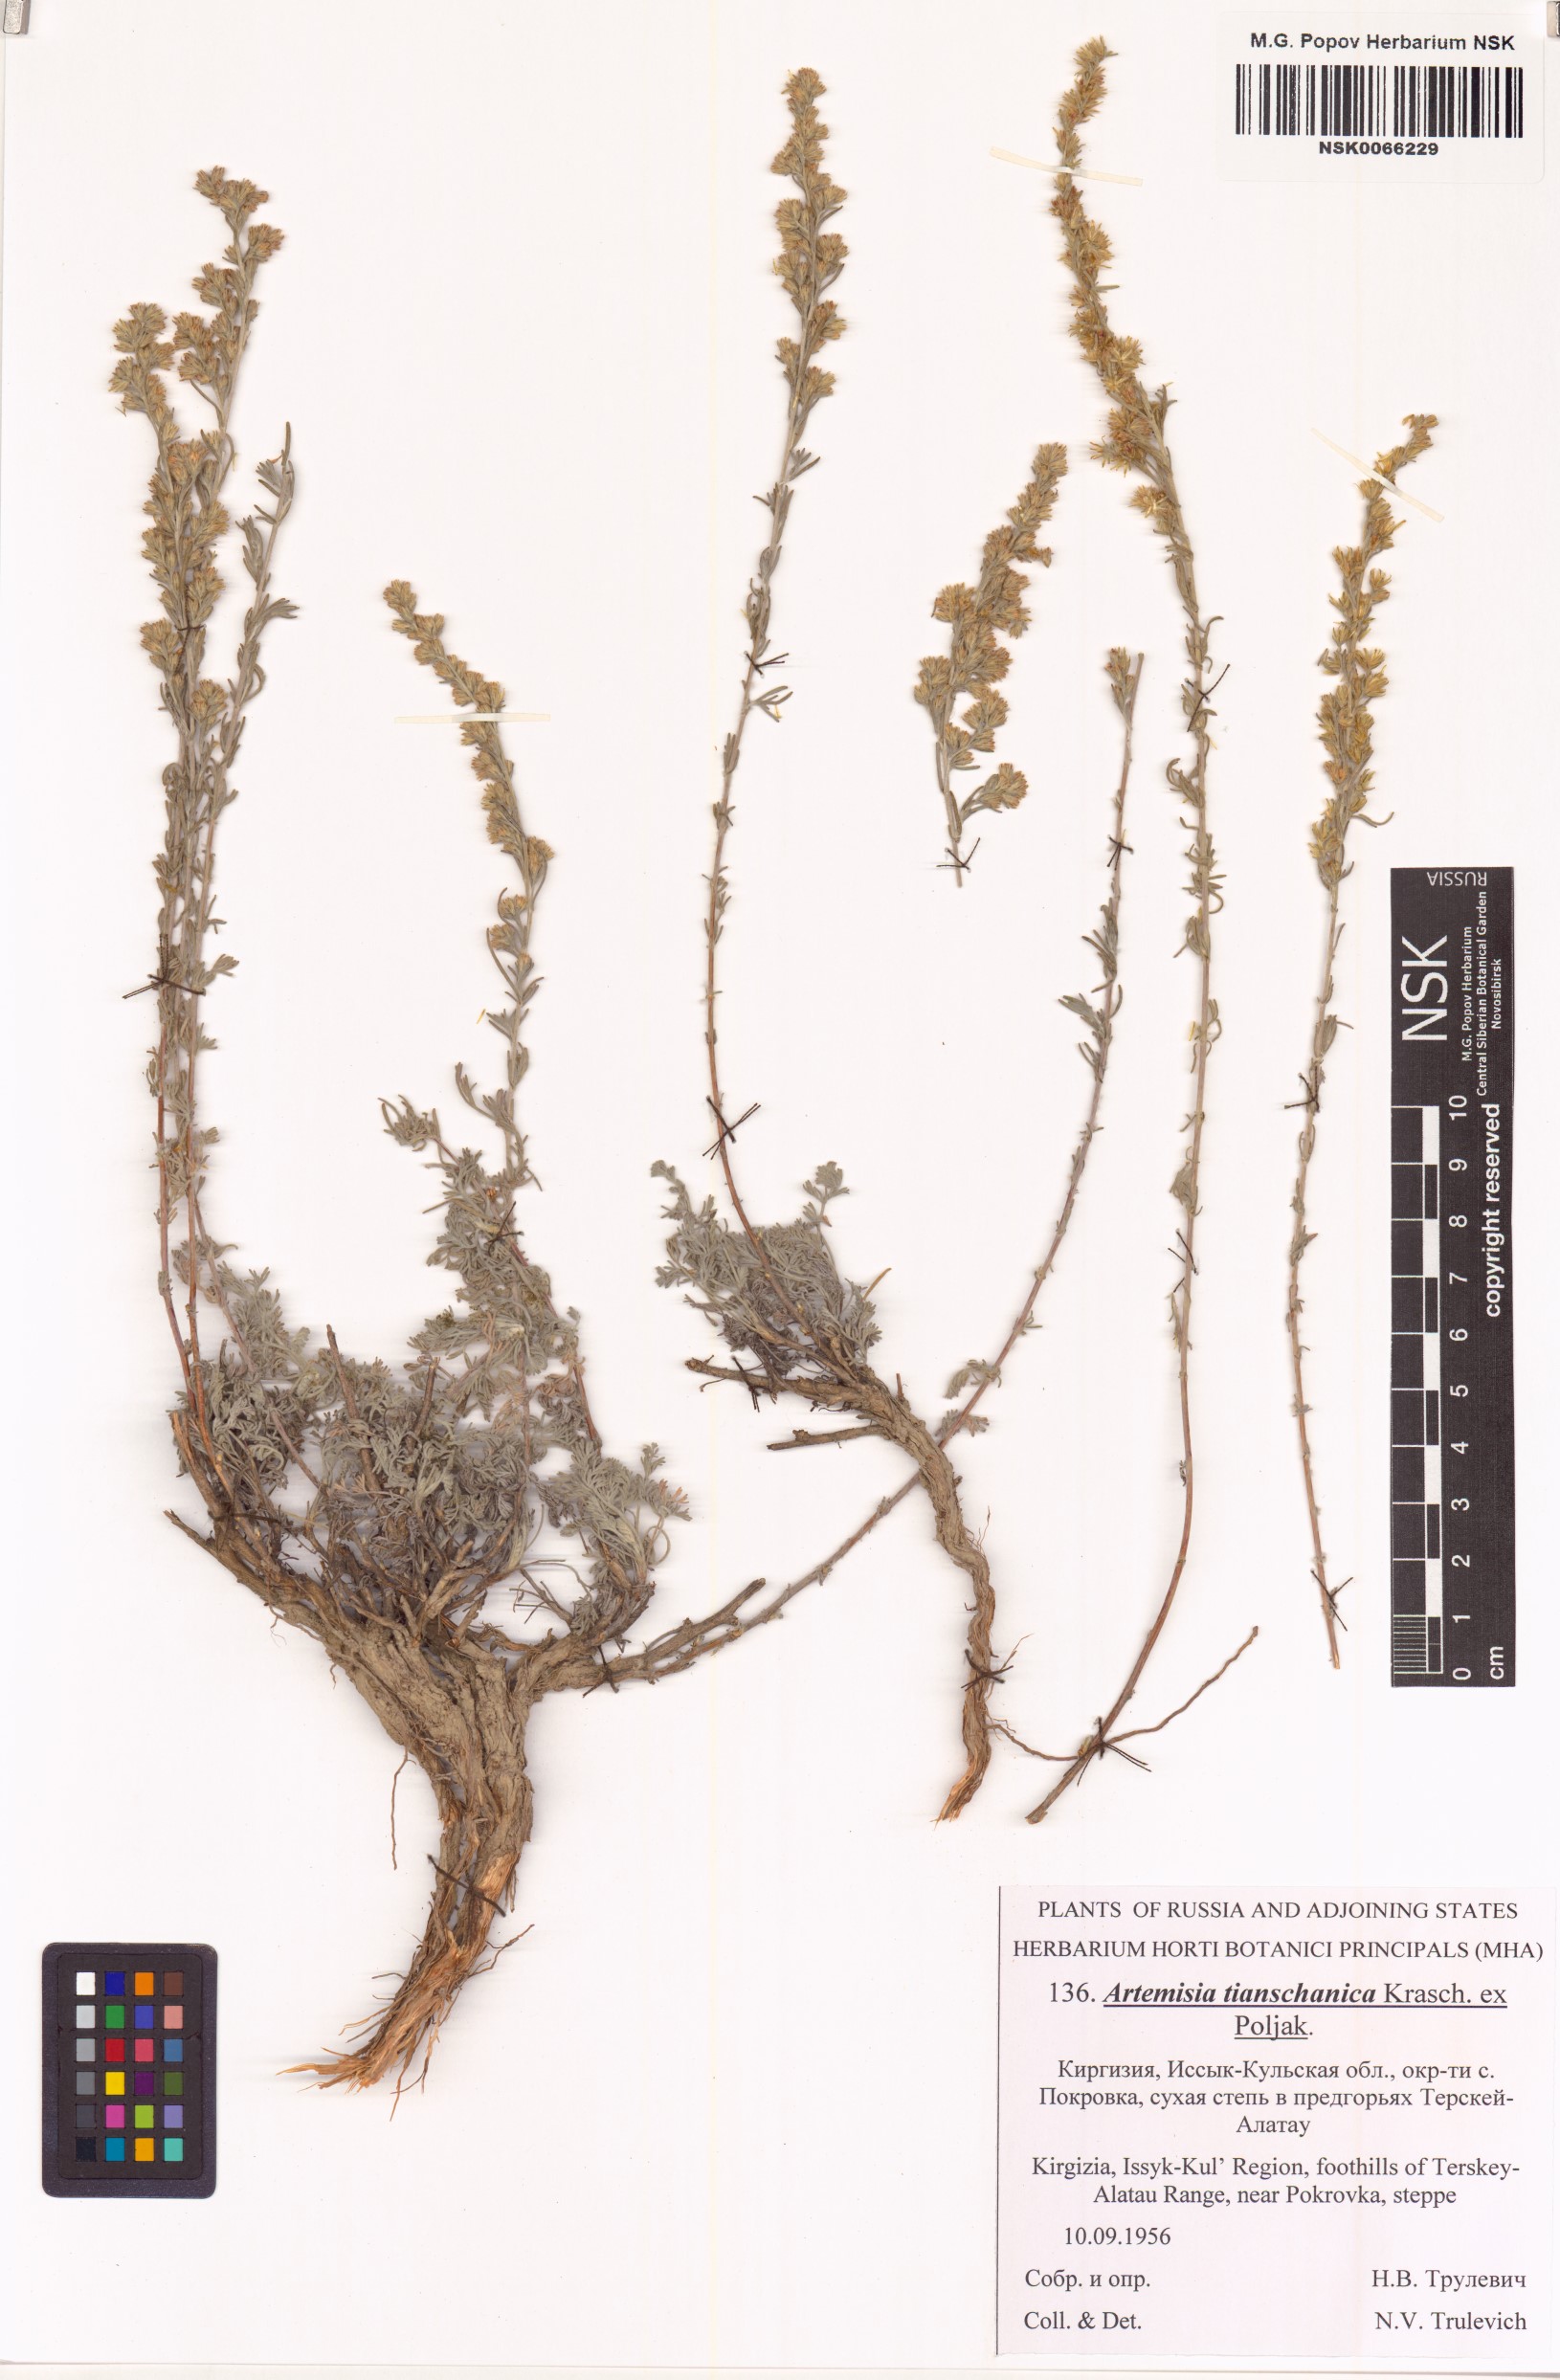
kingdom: Plantae
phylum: Tracheophyta
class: Magnoliopsida
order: Asterales
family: Asteraceae
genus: Artemisia
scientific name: Artemisia tianschanica
